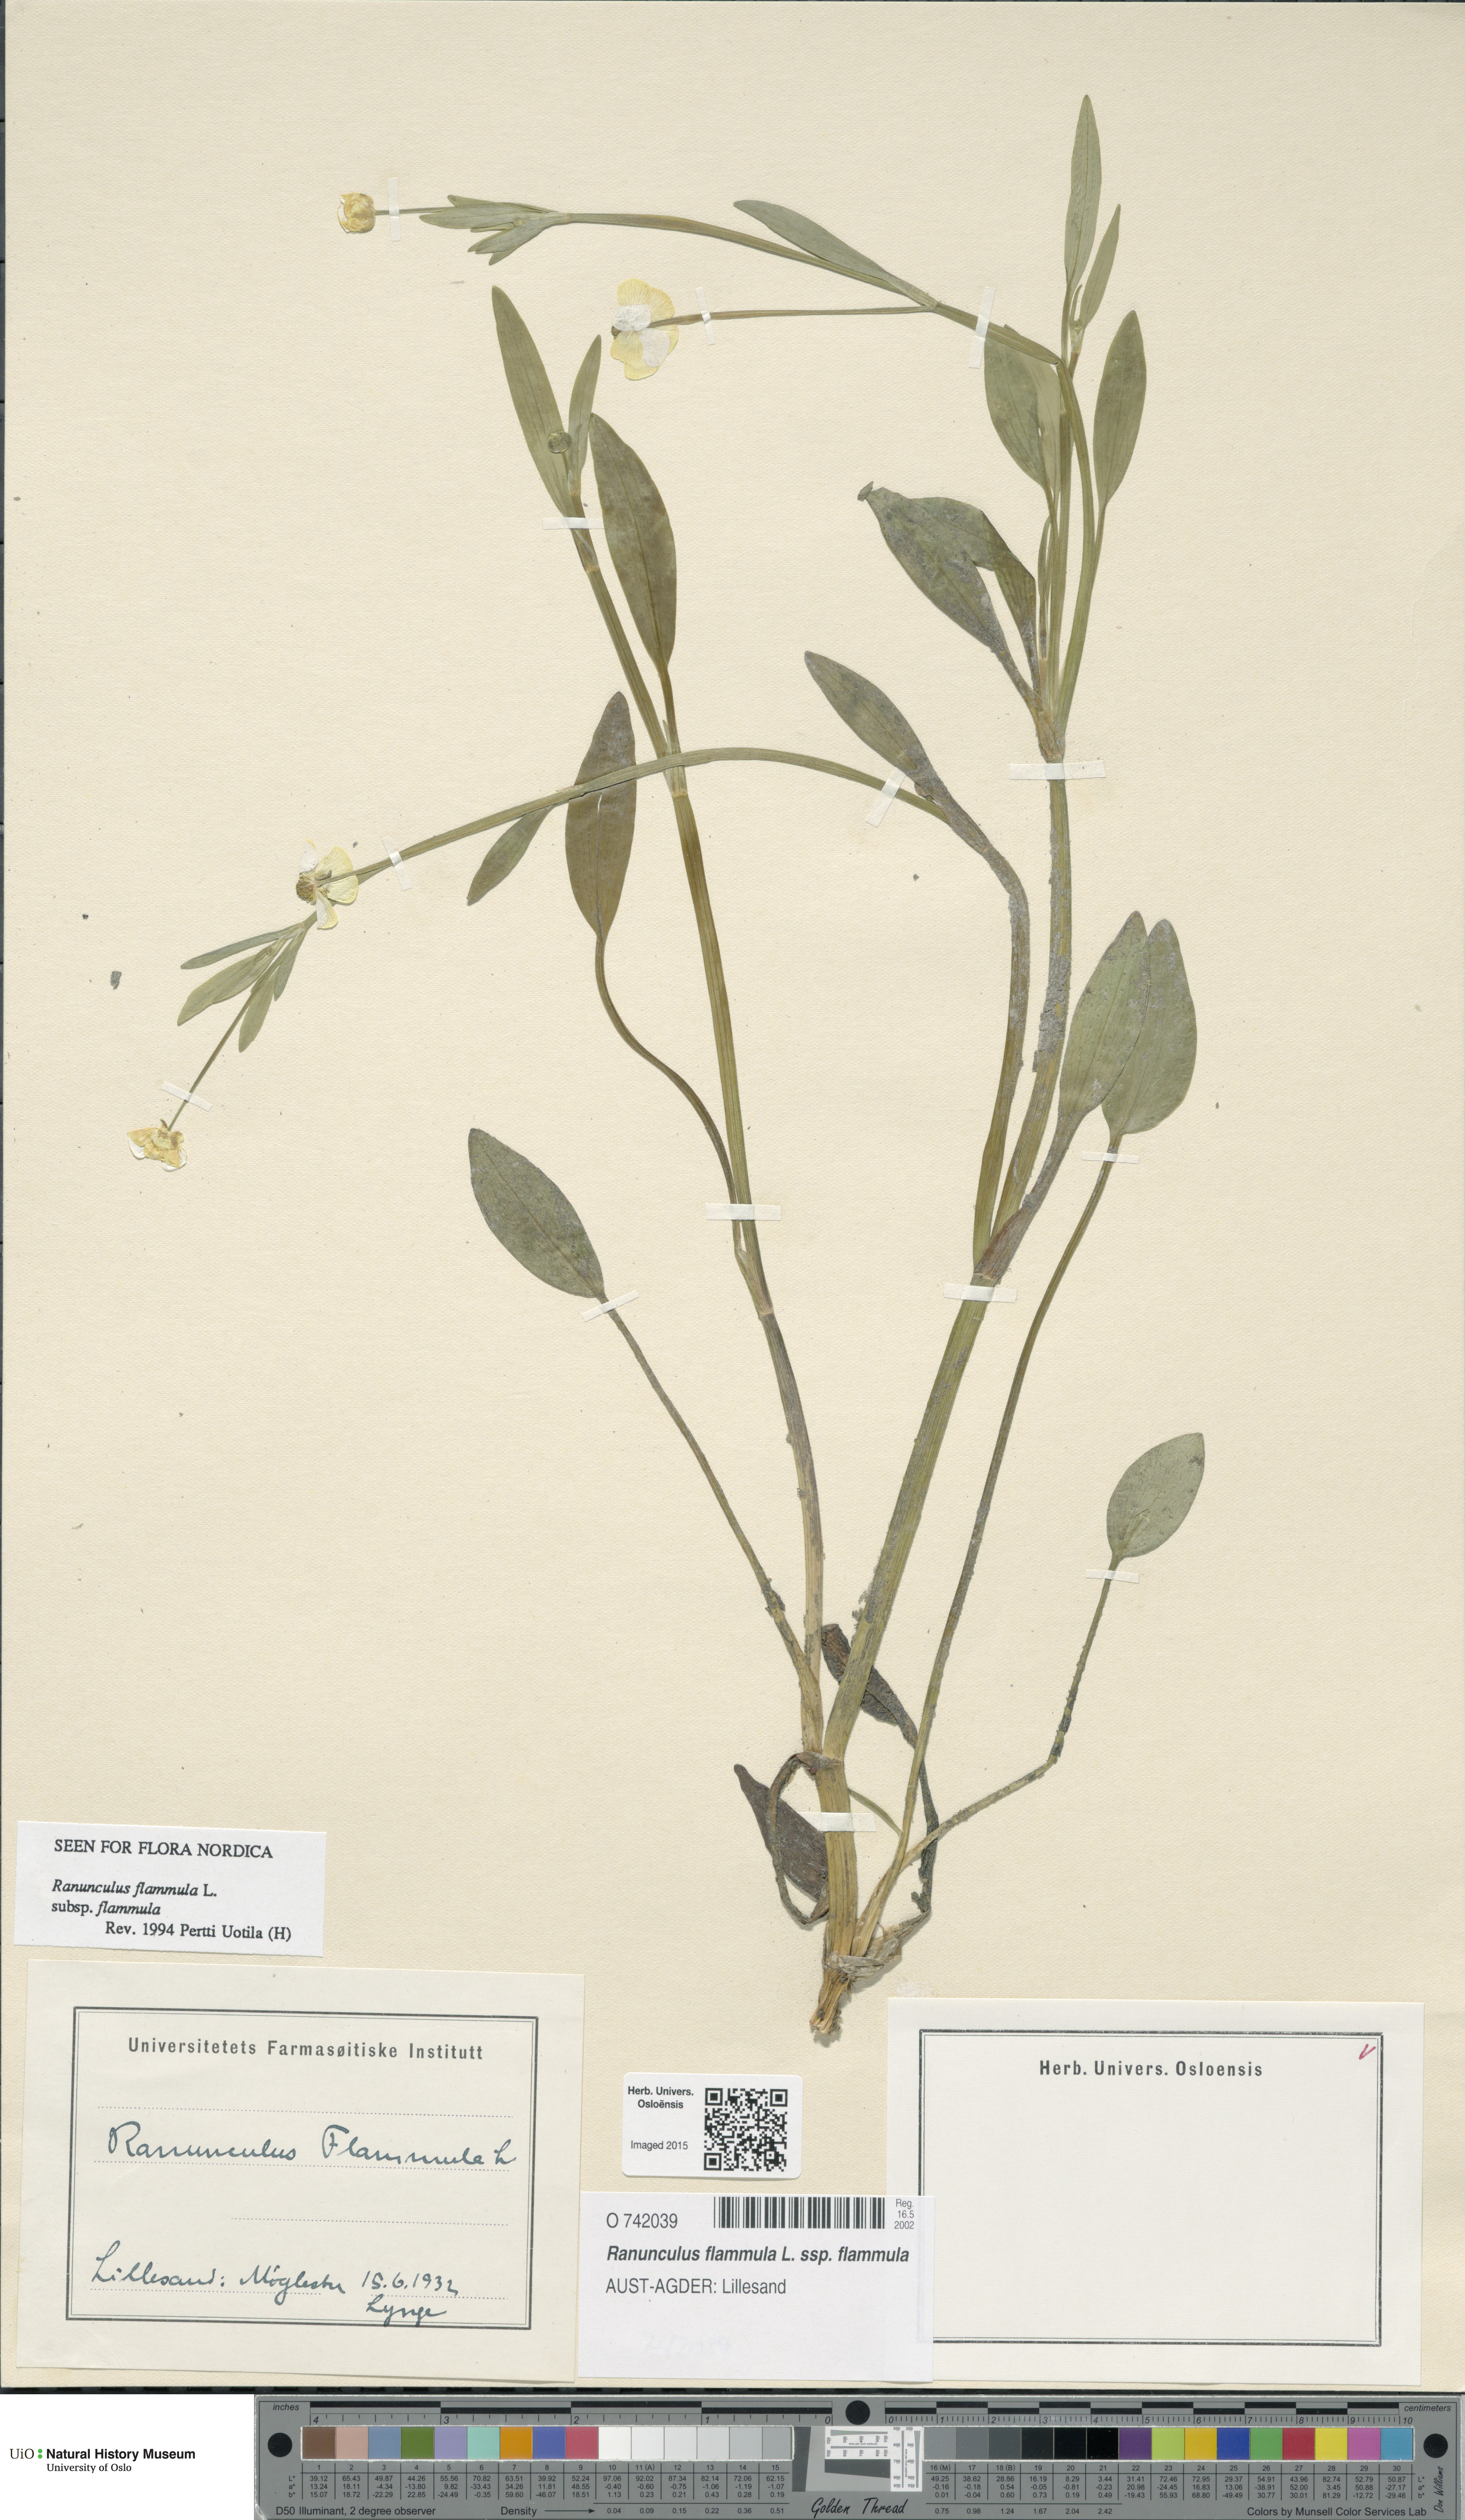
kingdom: Plantae
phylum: Tracheophyta
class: Magnoliopsida
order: Ranunculales
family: Ranunculaceae
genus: Ranunculus
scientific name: Ranunculus flammula
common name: Lesser spearwort
